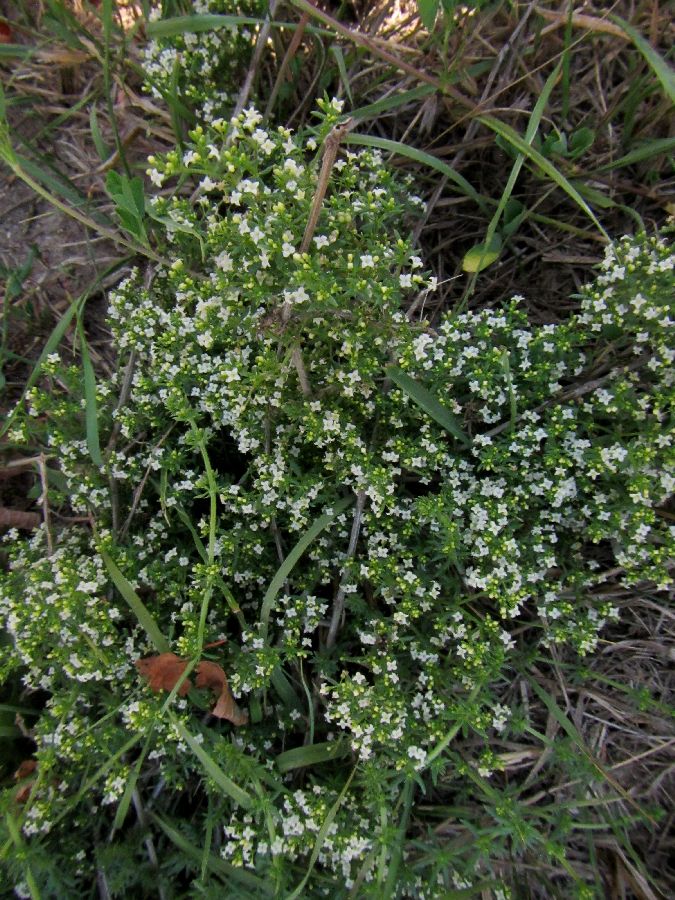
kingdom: Plantae
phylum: Tracheophyta
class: Magnoliopsida
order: Gentianales
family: Rubiaceae
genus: Galium
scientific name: Galium humifusum
